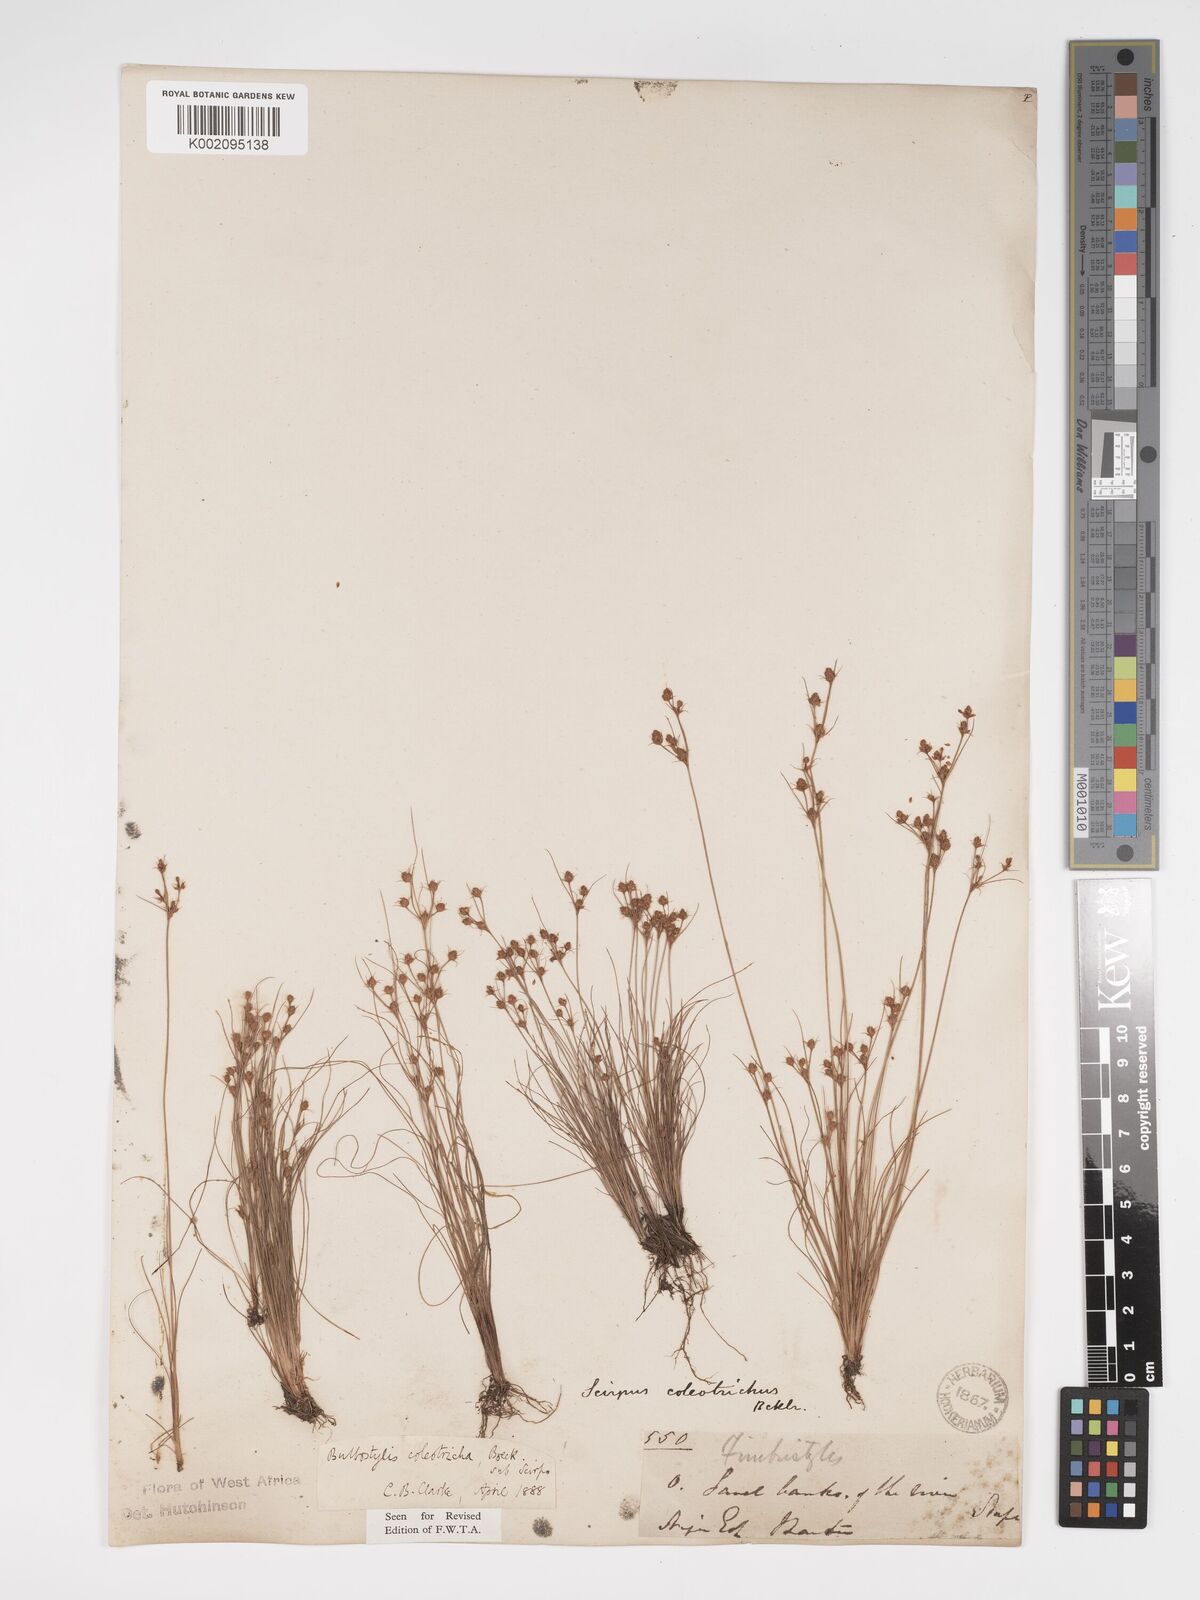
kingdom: Plantae
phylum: Tracheophyta
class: Liliopsida
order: Poales
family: Cyperaceae
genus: Bulbostylis
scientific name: Bulbostylis coleotricha
